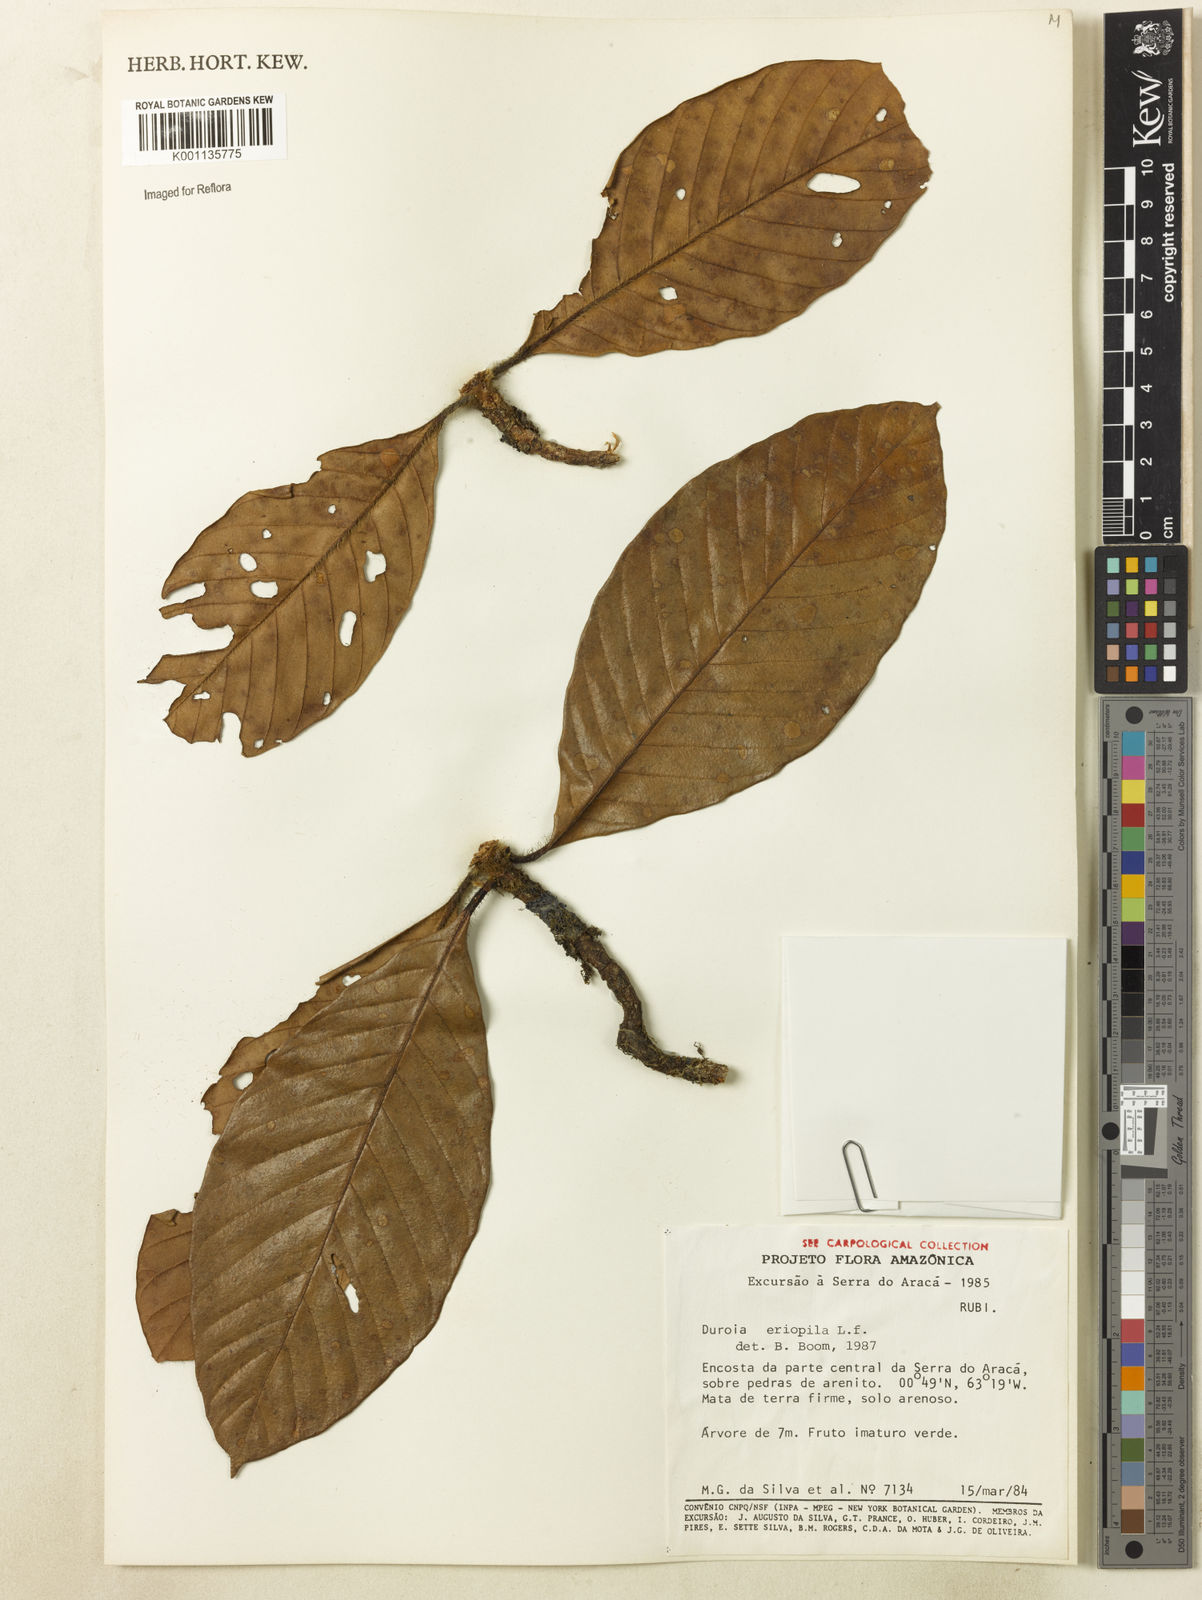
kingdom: Plantae
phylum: Tracheophyta
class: Magnoliopsida
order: Gentianales
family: Rubiaceae
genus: Duroia
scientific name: Duroia eriopila
